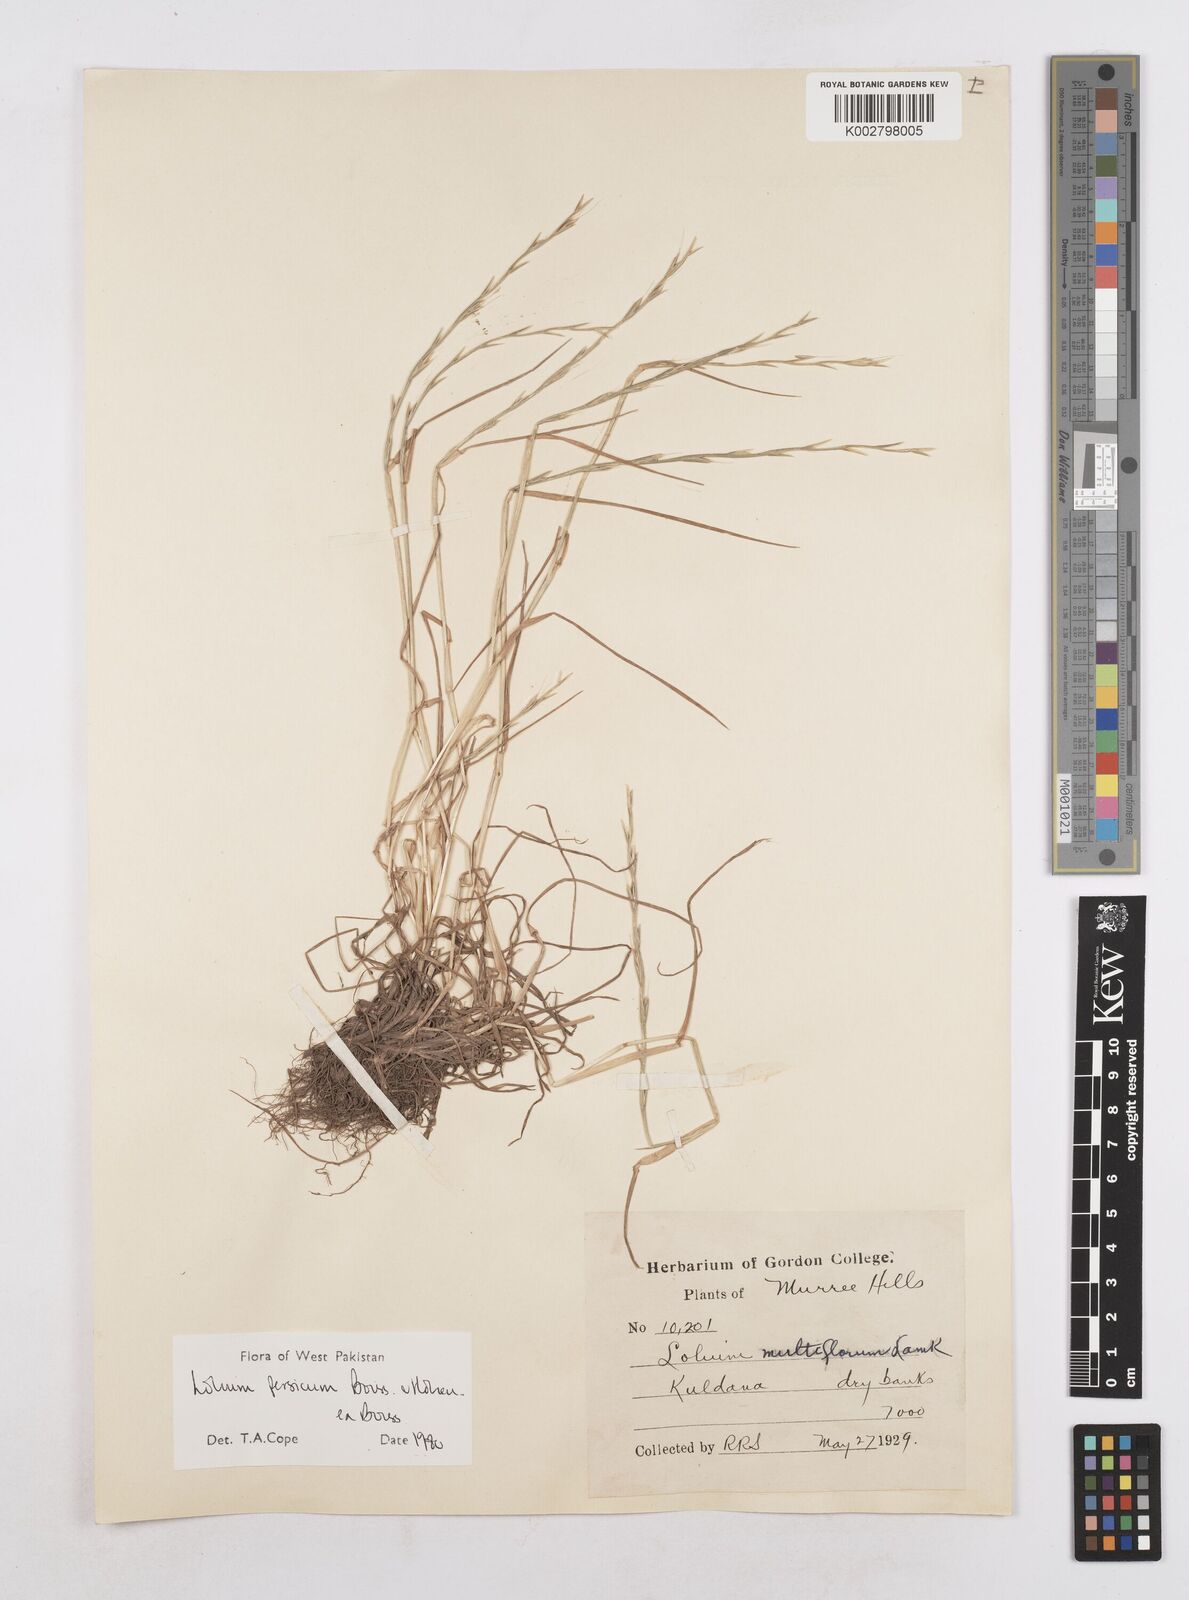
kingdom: Plantae
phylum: Tracheophyta
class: Liliopsida
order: Poales
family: Poaceae
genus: Lolium
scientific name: Lolium persicum
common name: Persian ryegrass
